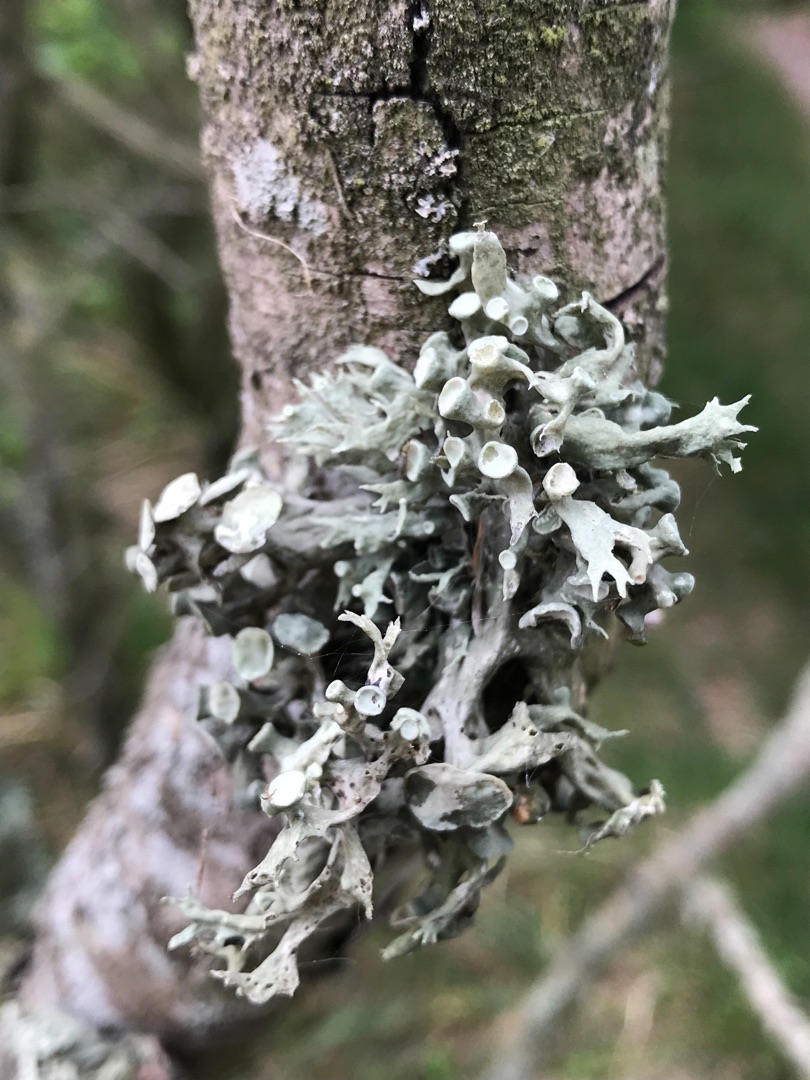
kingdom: Fungi
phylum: Ascomycota
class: Lecanoromycetes
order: Lecanorales
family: Ramalinaceae
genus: Ramalina
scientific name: Ramalina fastigiata
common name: Tue-grenlav
